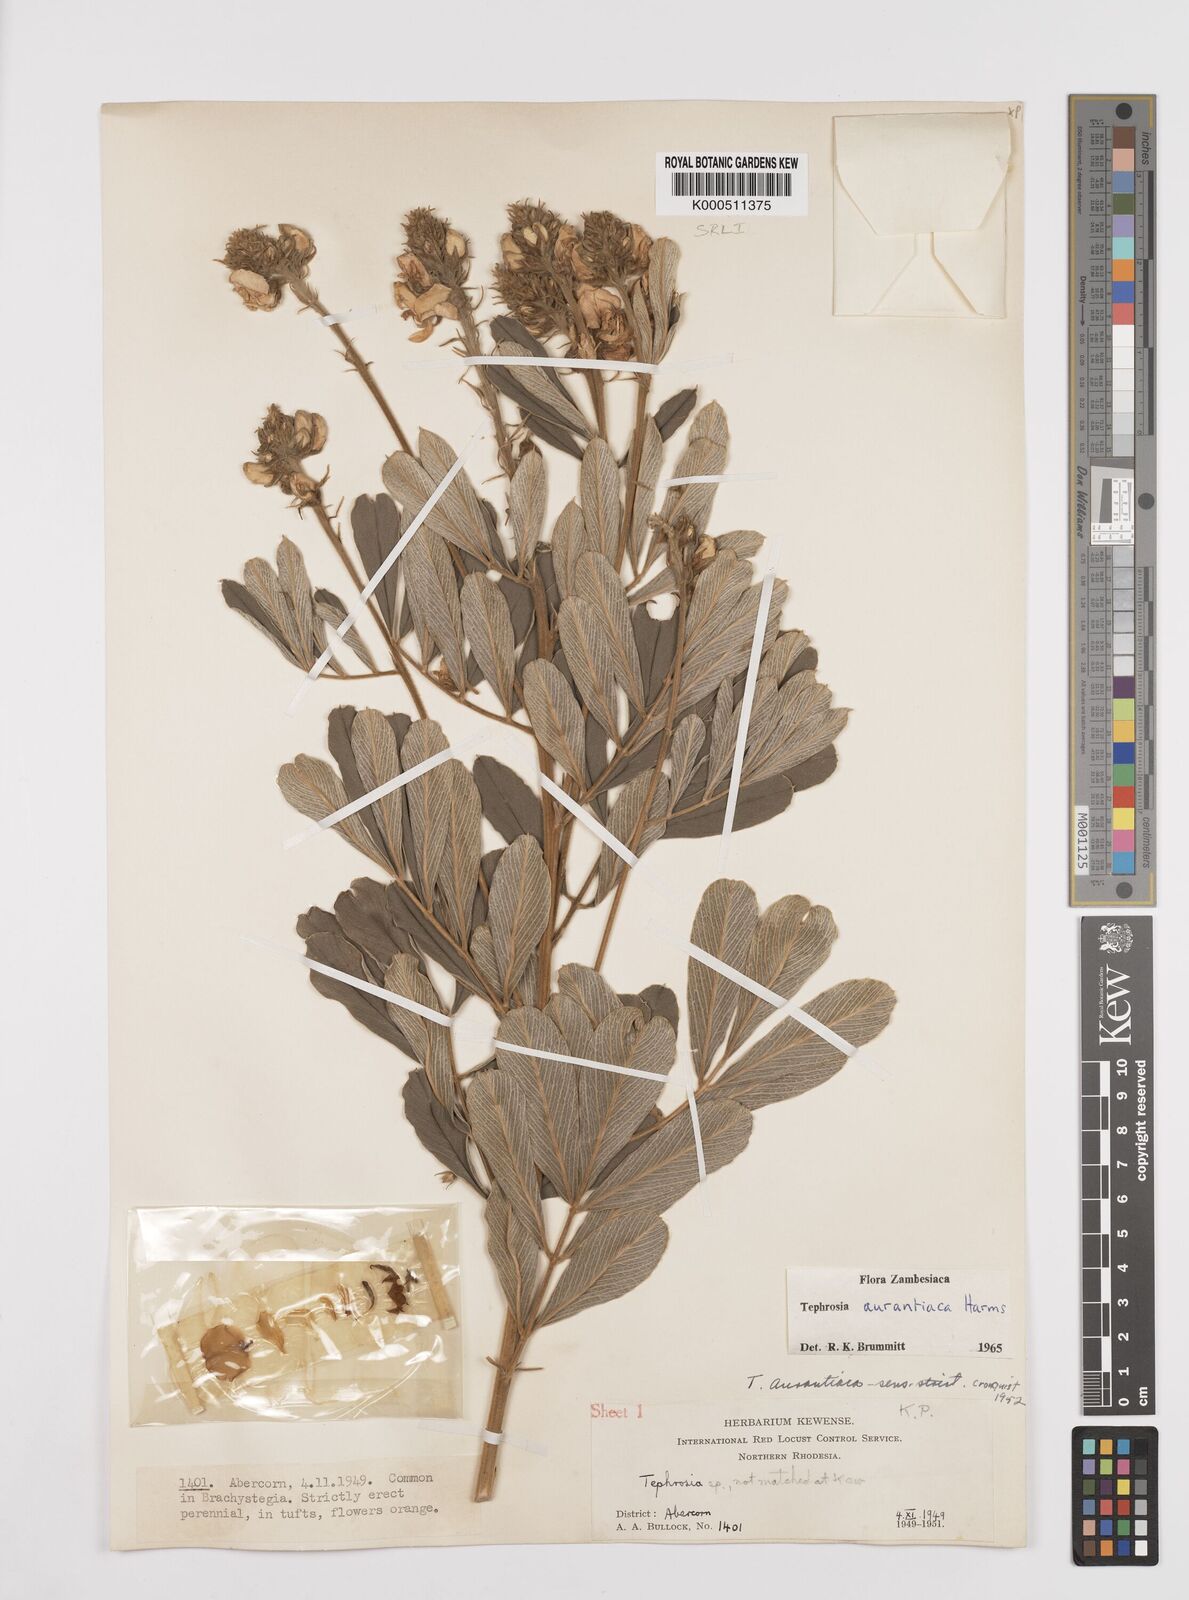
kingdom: Plantae
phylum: Tracheophyta
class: Magnoliopsida
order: Fabales
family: Fabaceae
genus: Tephrosia
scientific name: Tephrosia aurantiaca
